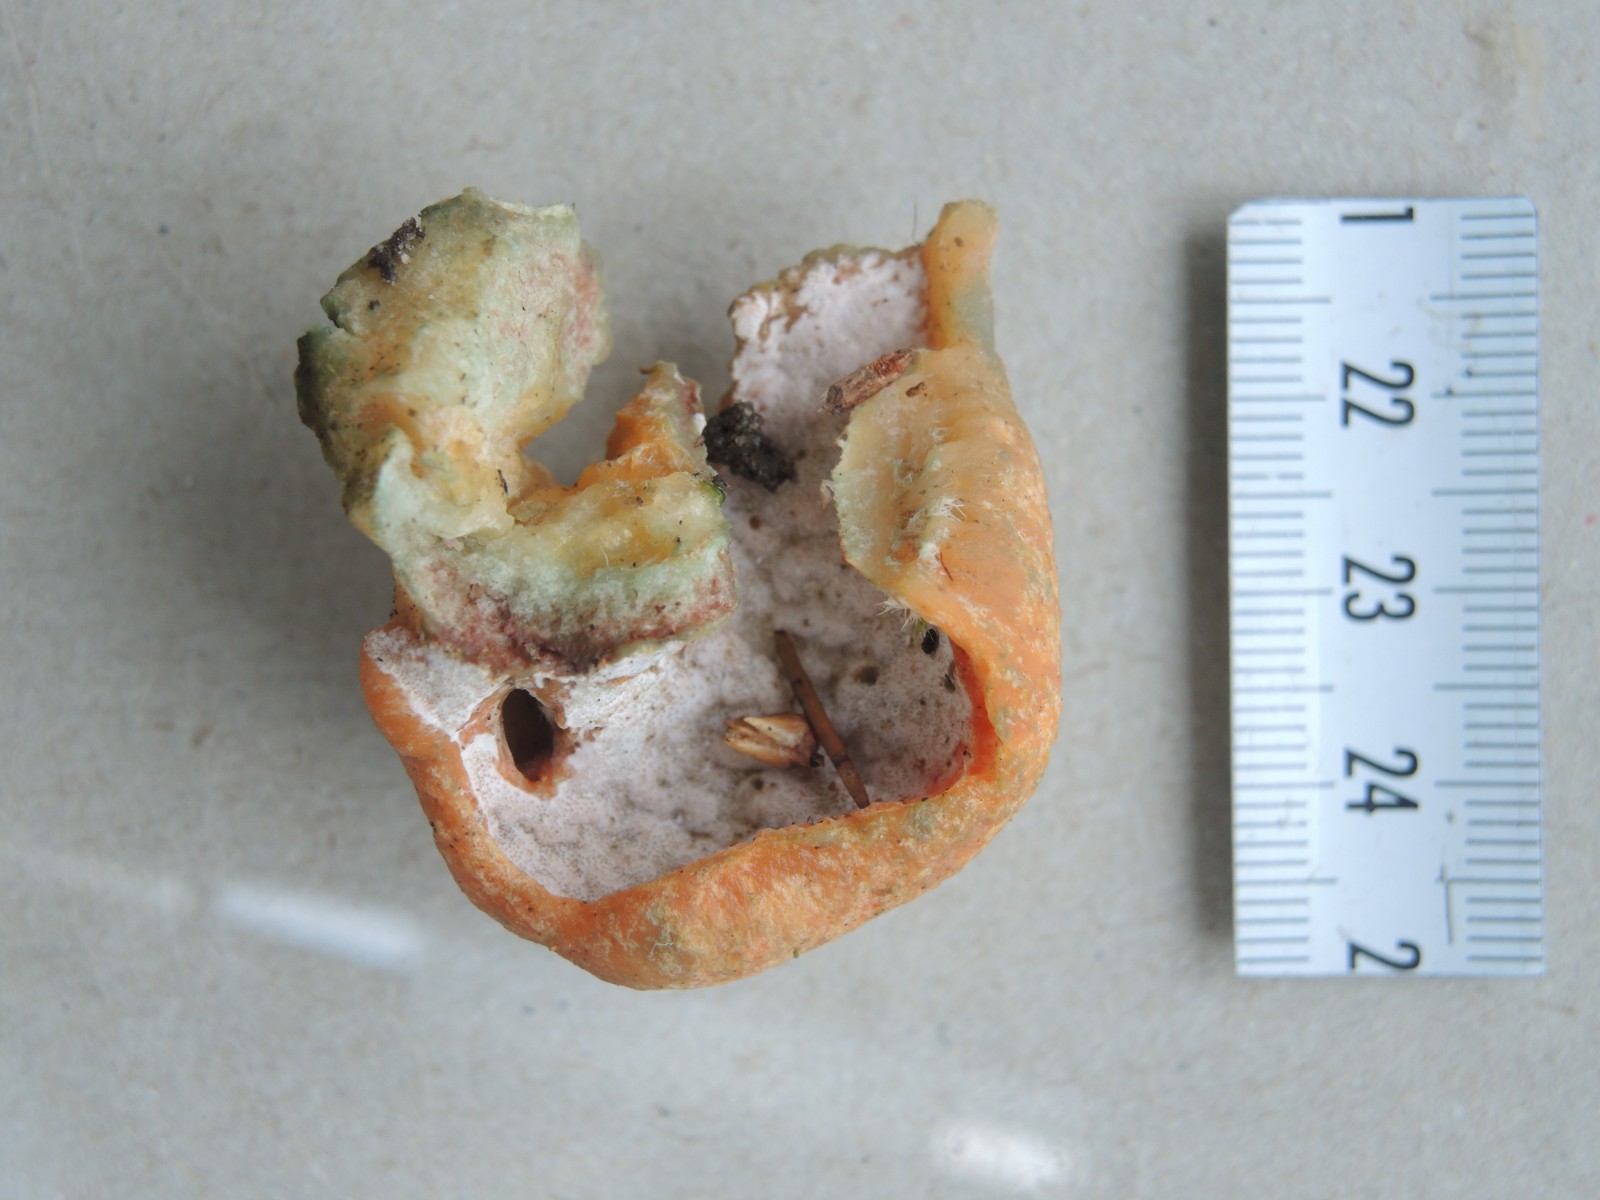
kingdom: Fungi
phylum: Ascomycota
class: Sordariomycetes
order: Hypocreales
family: Hypocreaceae
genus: Hypomyces
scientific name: Hypomyces lateritius
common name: mælkehat-snylteskorpe
